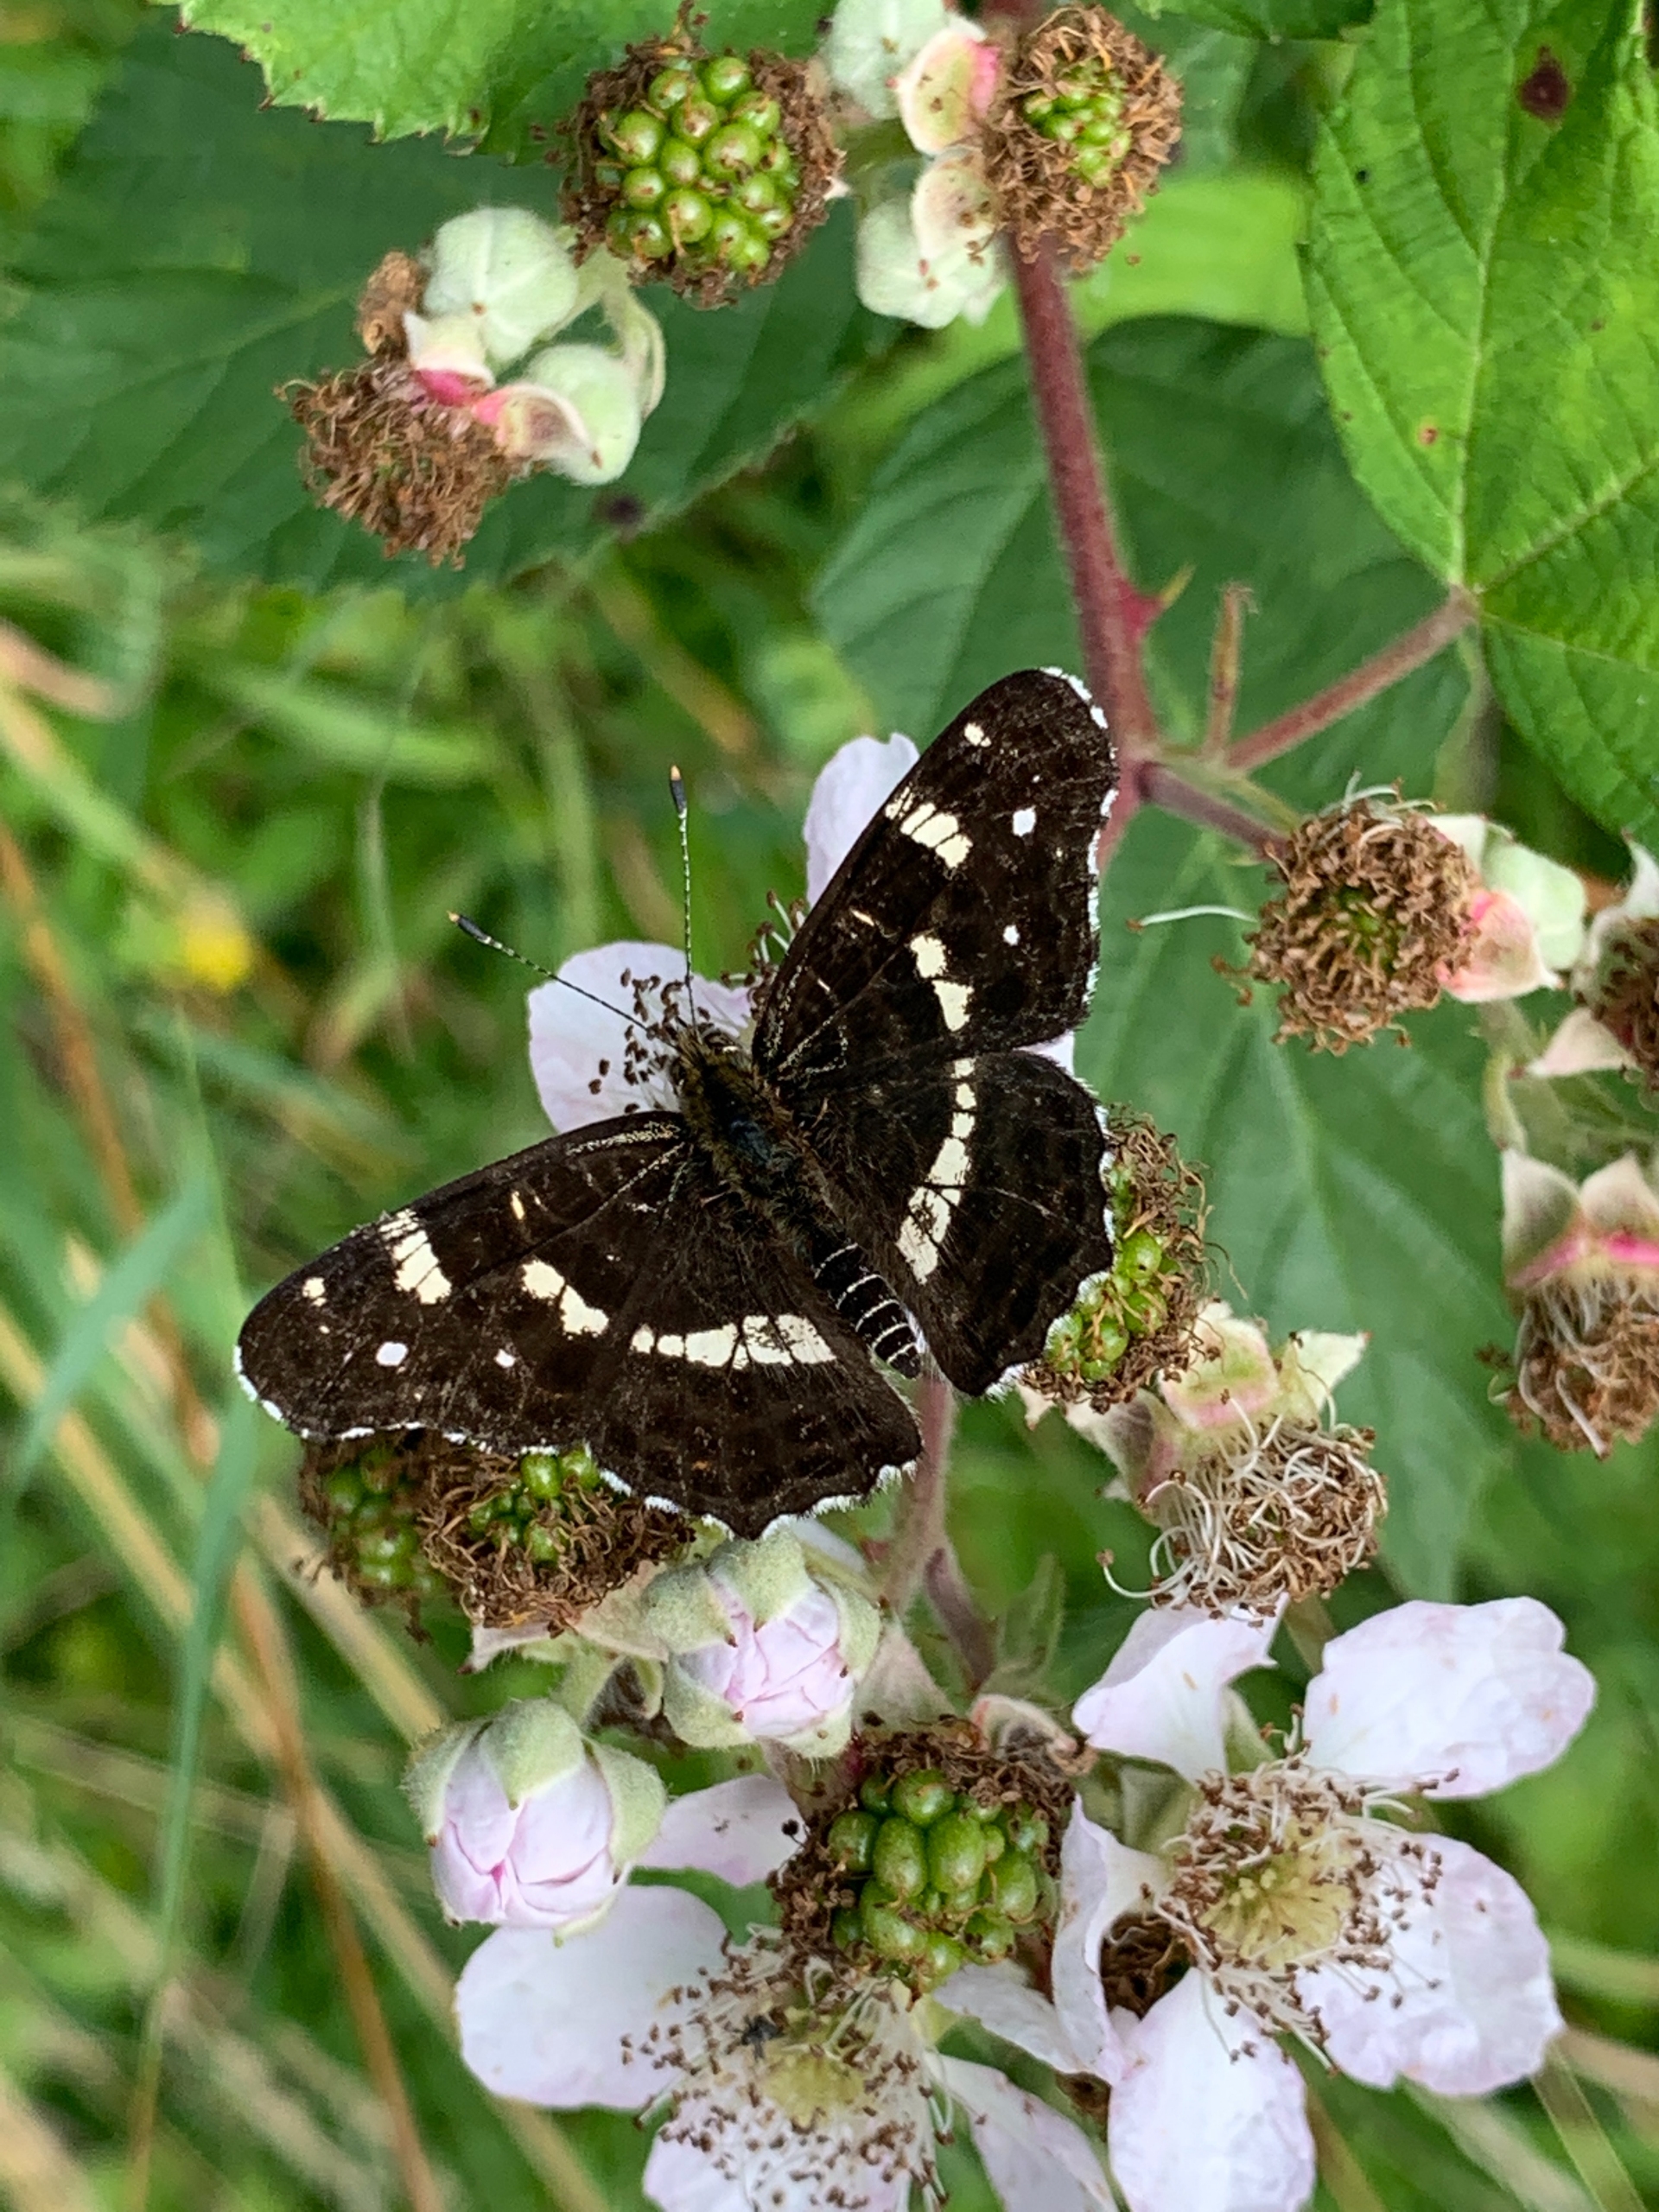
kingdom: Animalia
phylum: Arthropoda
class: Insecta
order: Lepidoptera
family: Nymphalidae
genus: Araschnia
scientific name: Araschnia levana
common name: Nældesommerfugl
